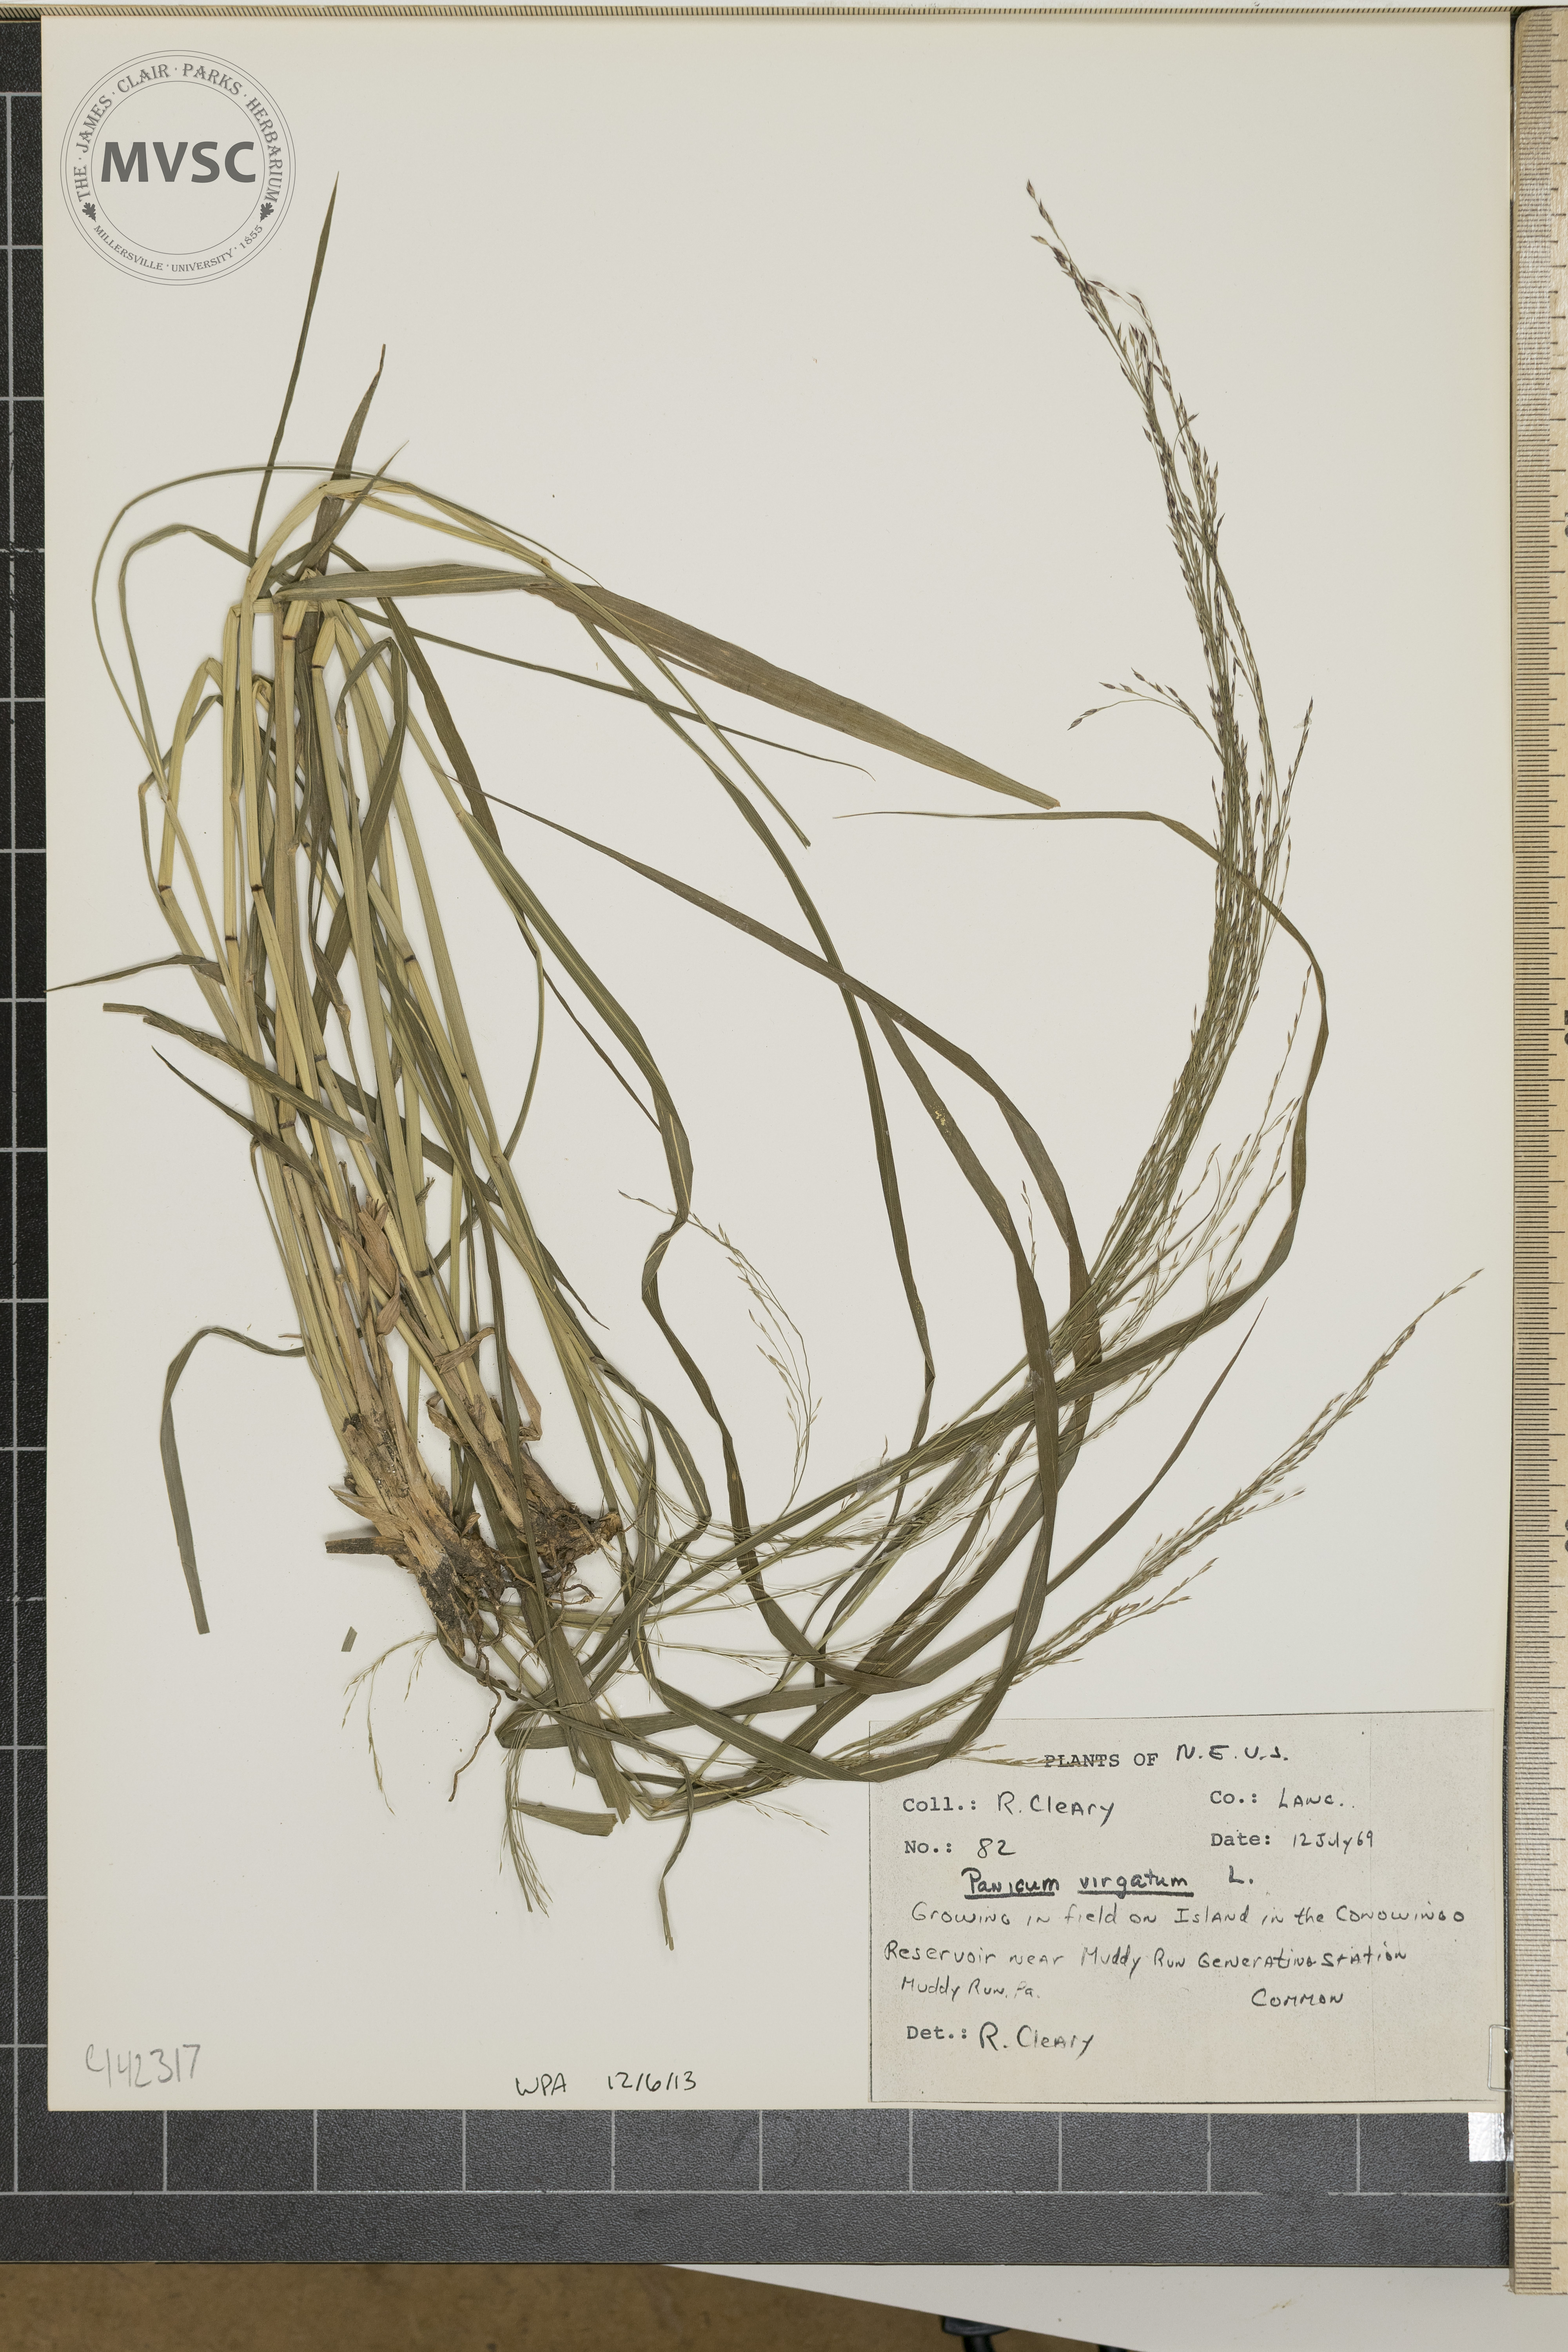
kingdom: Plantae
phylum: Tracheophyta
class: Liliopsida
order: Poales
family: Poaceae
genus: Panicum
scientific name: Panicum virgatum
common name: Switchgrass
